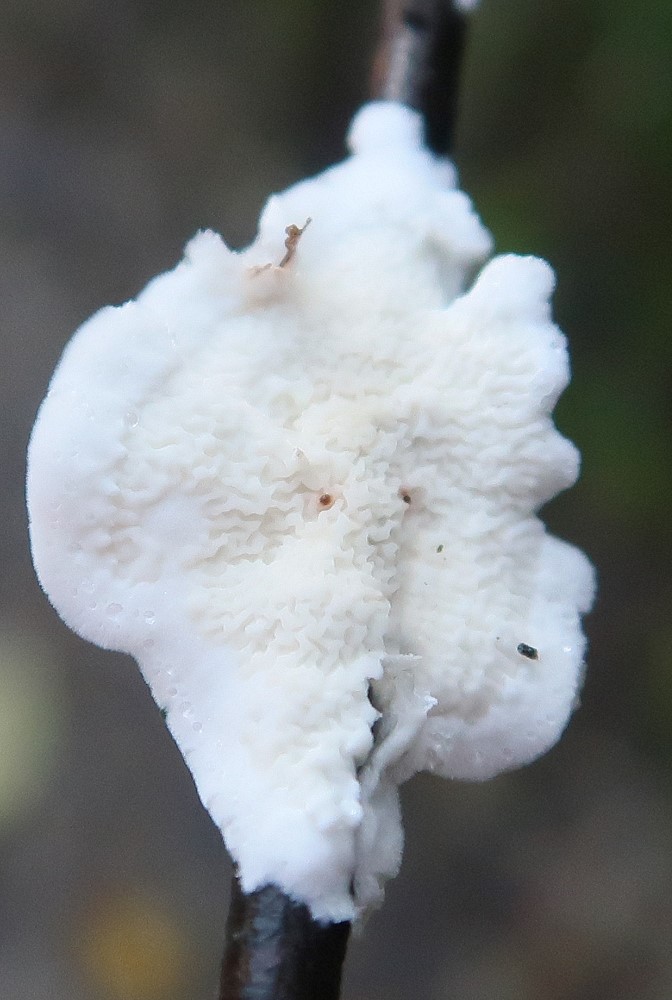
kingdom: Fungi
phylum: Basidiomycota
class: Agaricomycetes
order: Polyporales
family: Irpicaceae
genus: Byssomerulius
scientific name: Byssomerulius corium
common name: læder-åresvamp
